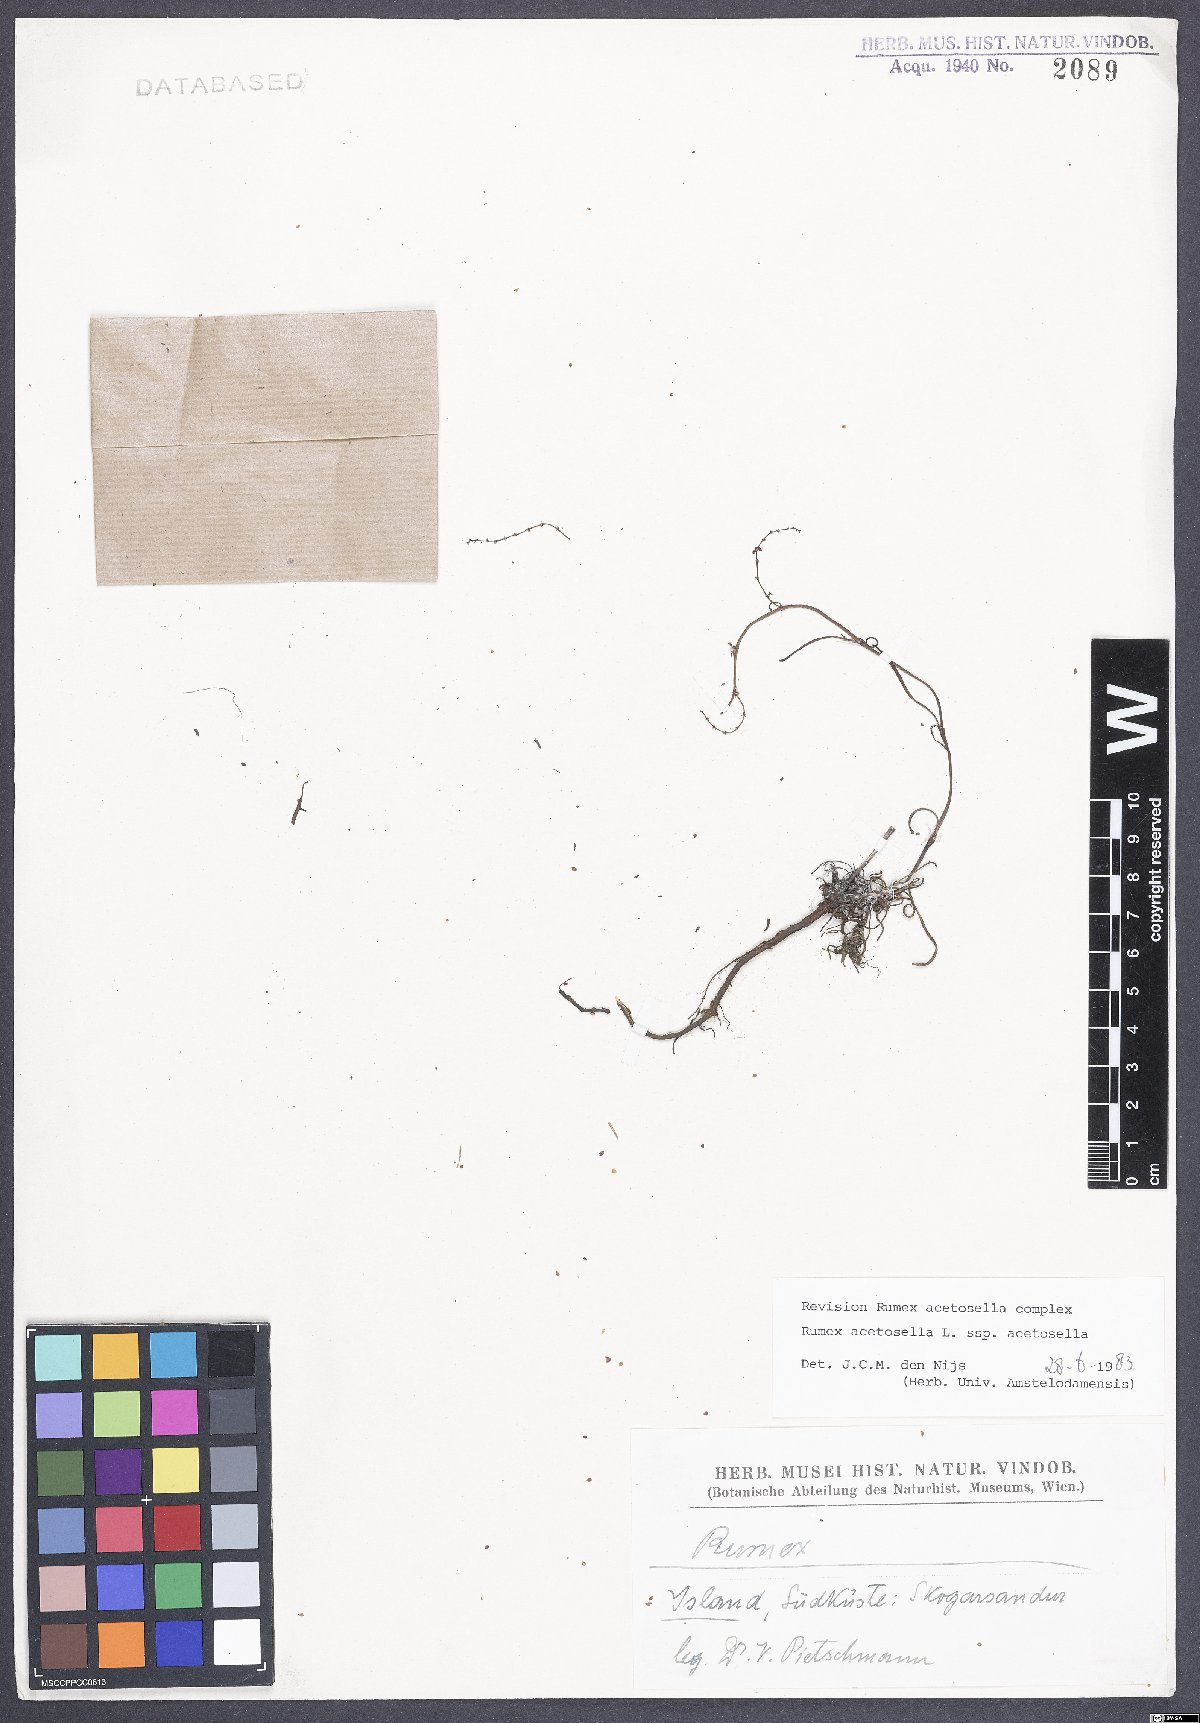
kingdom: Plantae
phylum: Tracheophyta
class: Magnoliopsida
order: Caryophyllales
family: Polygonaceae
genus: Rumex
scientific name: Rumex acetosella
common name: Common sheep sorrel
